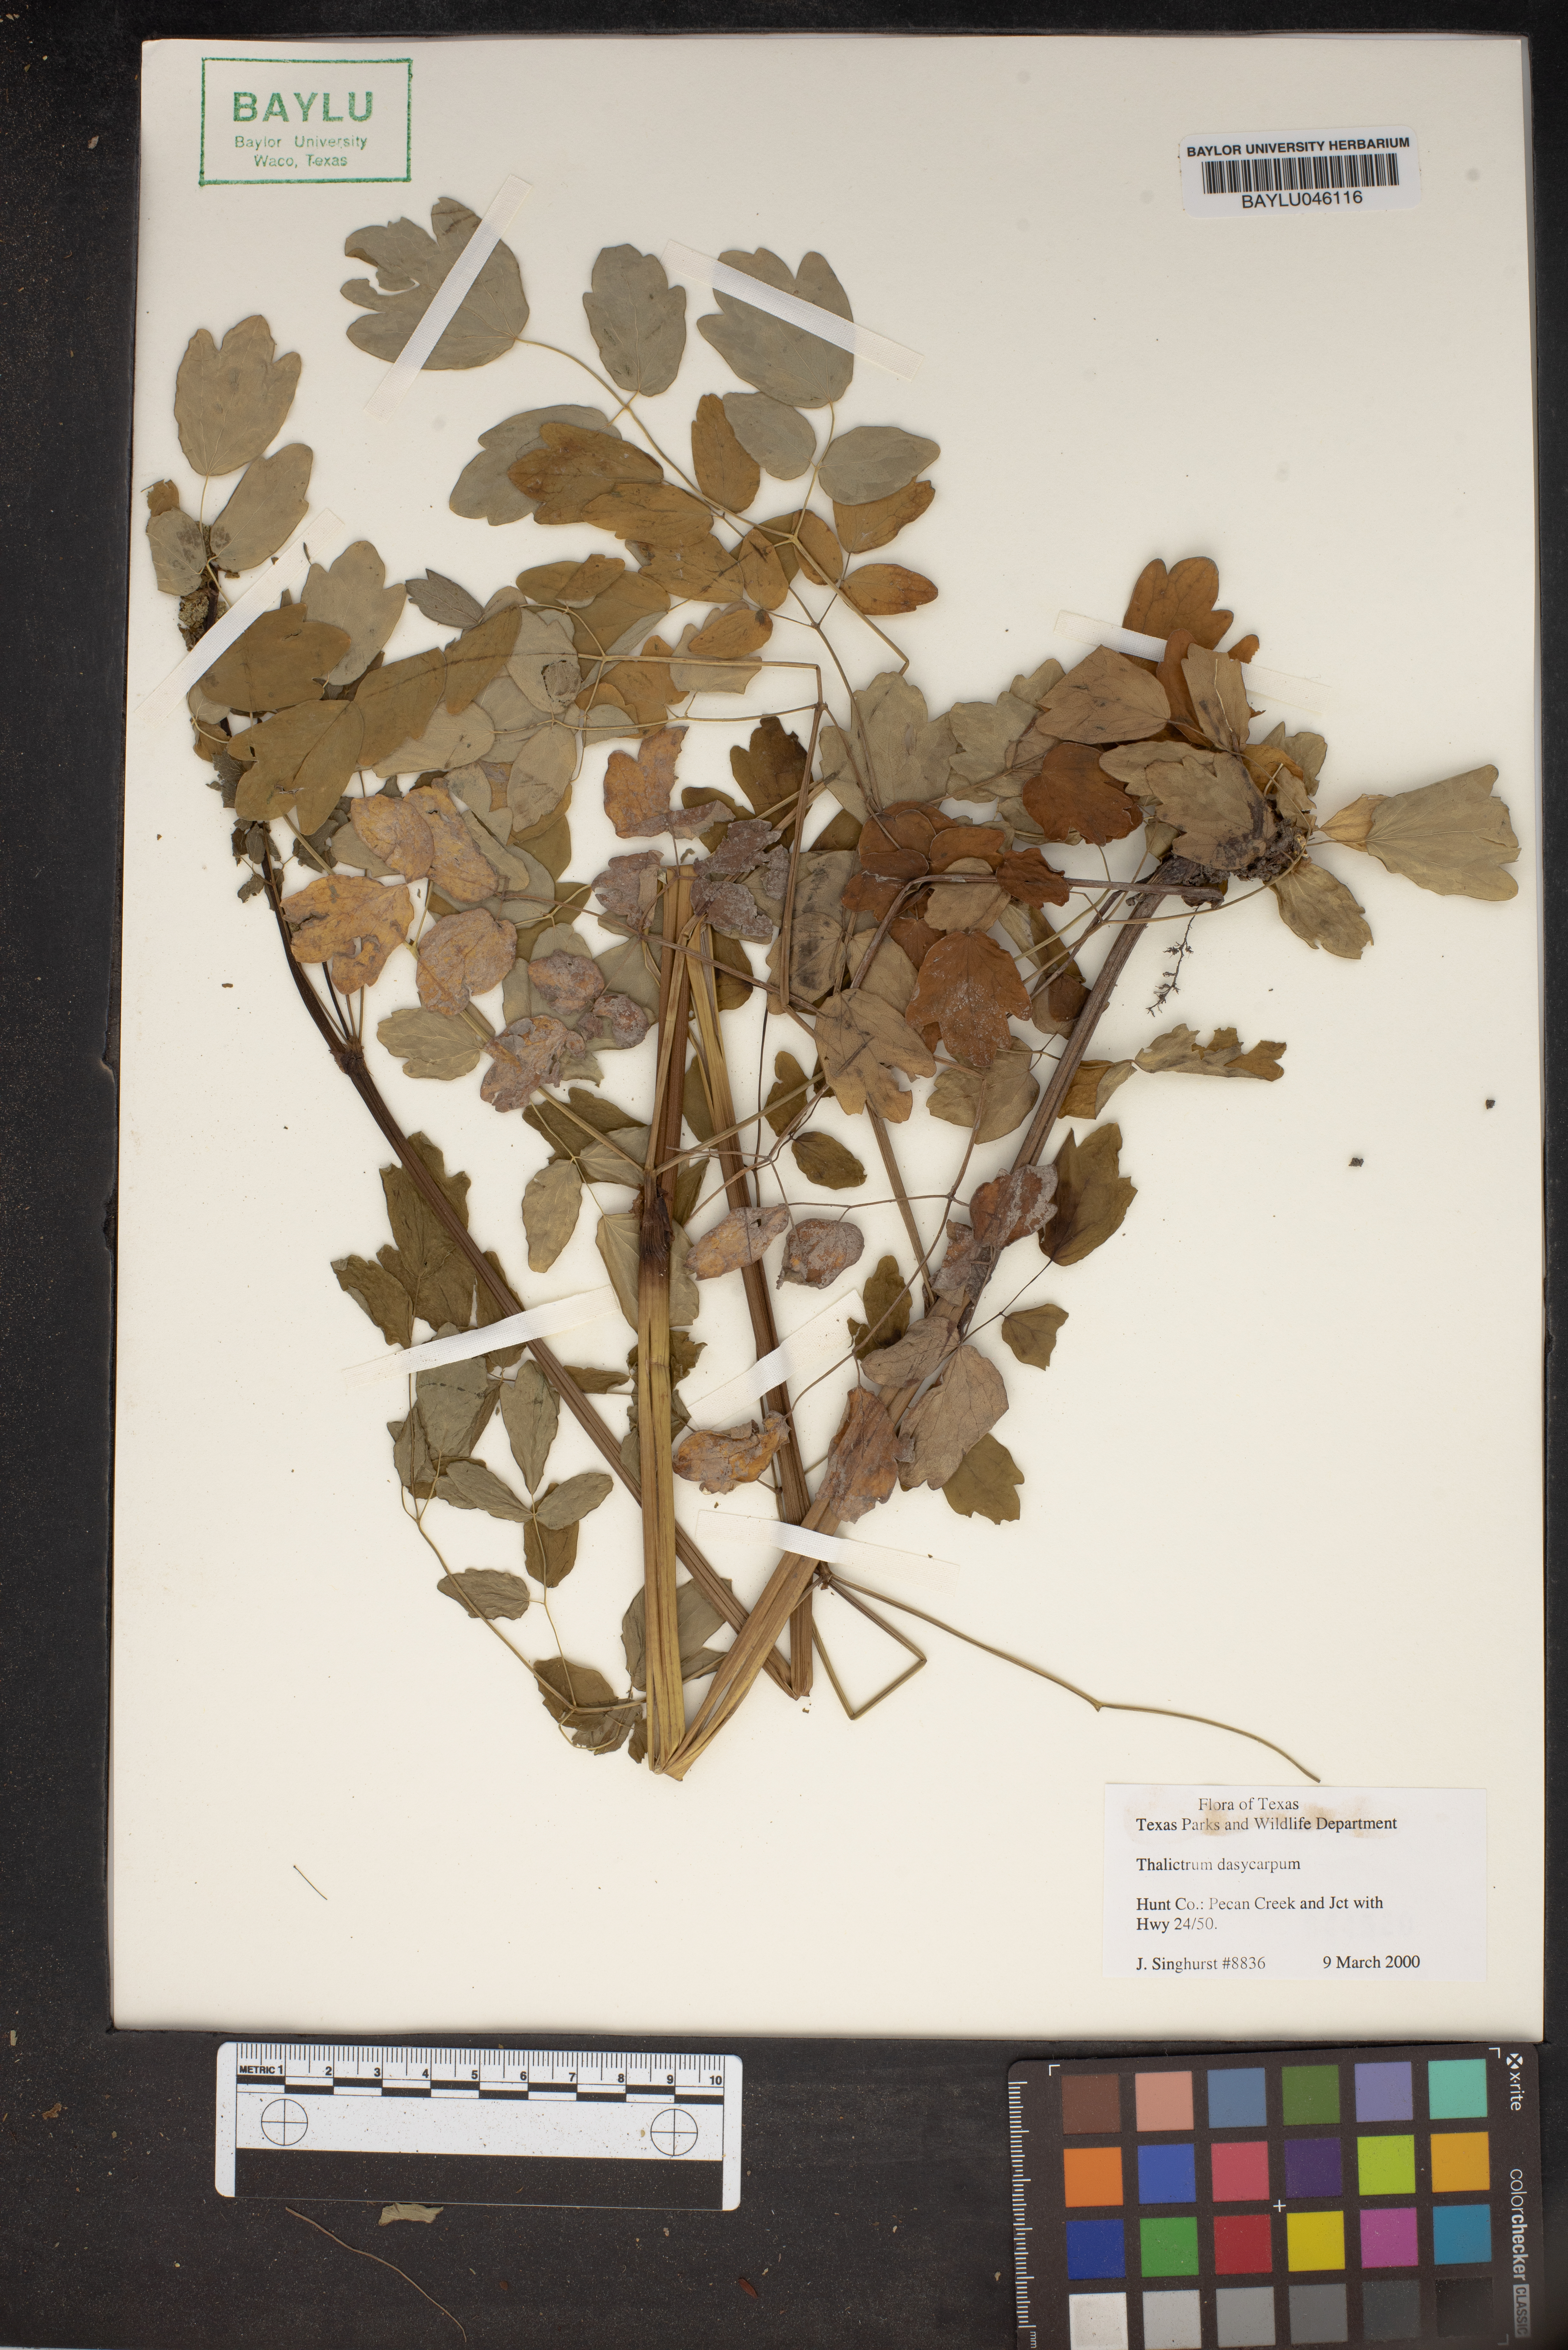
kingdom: Plantae
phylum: Tracheophyta
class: Magnoliopsida
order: Ranunculales
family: Ranunculaceae
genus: Thalictrum
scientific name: Thalictrum dasycarpum
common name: Purple meadow-rue
